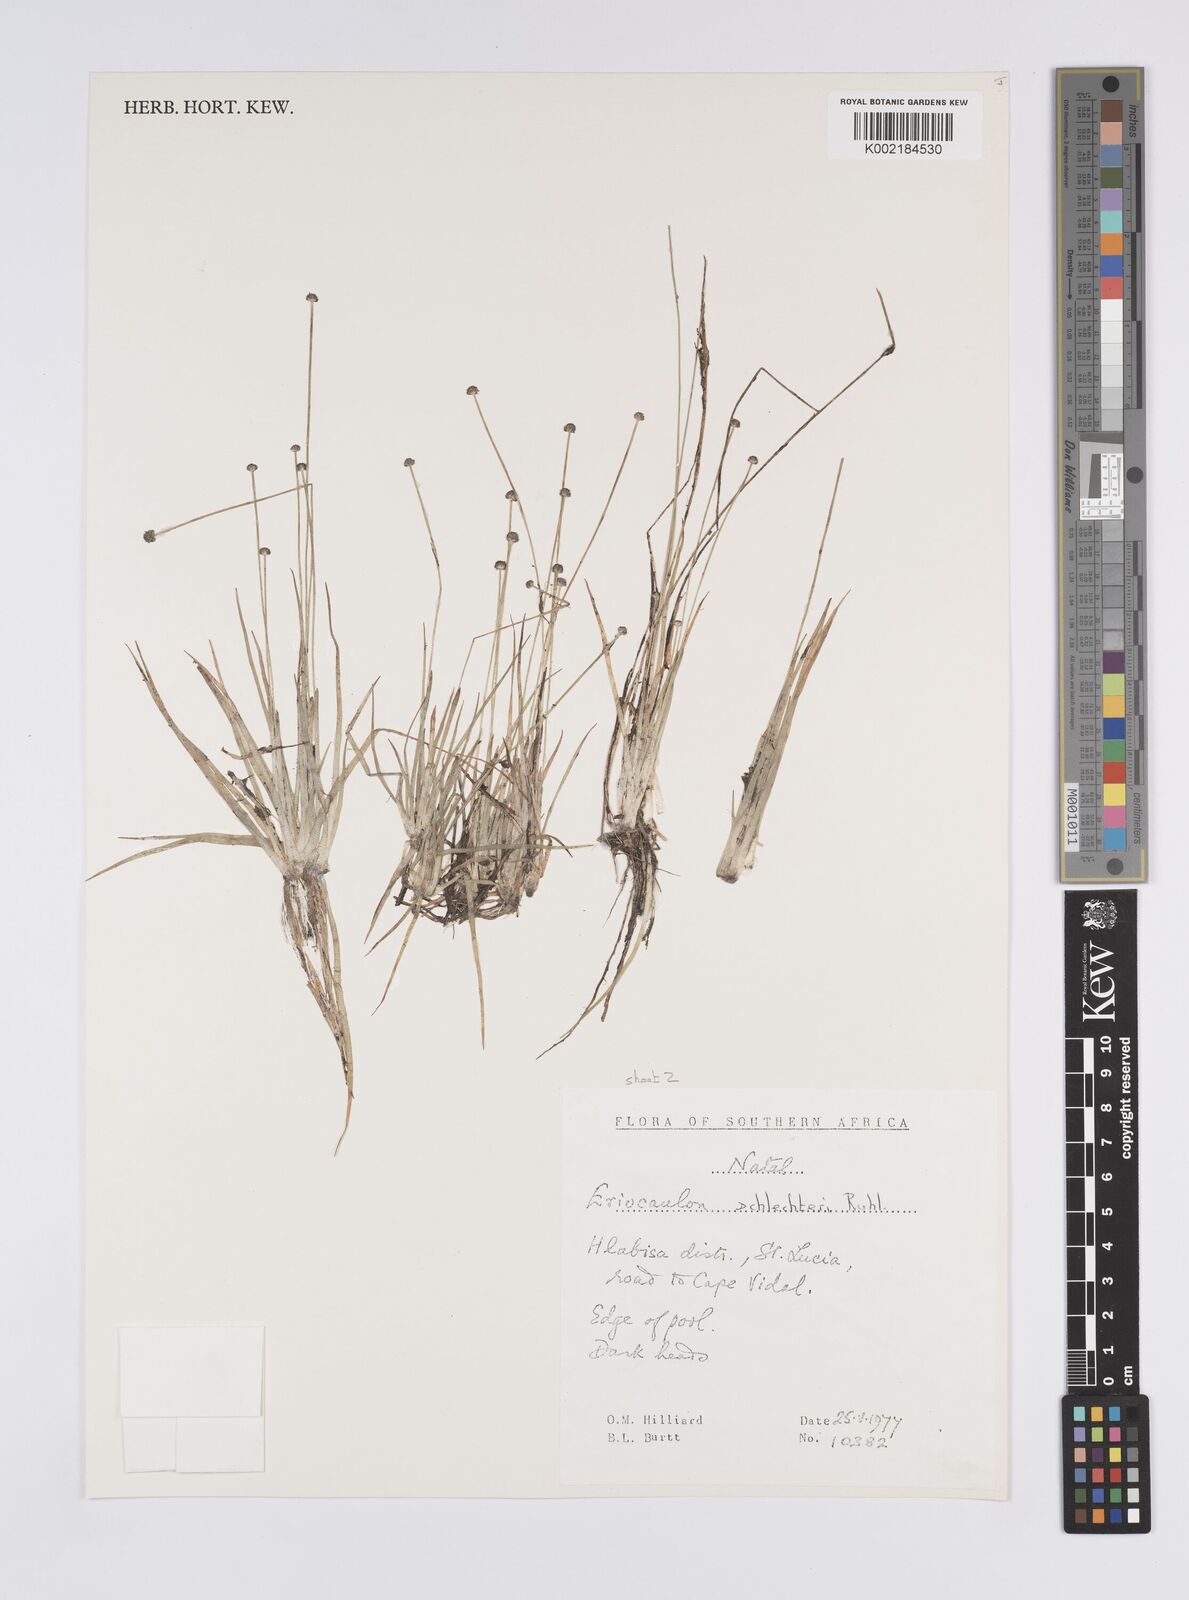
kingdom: Plantae
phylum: Tracheophyta
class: Liliopsida
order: Poales
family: Eriocaulaceae
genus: Eriocaulon
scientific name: Eriocaulon schlechteri
